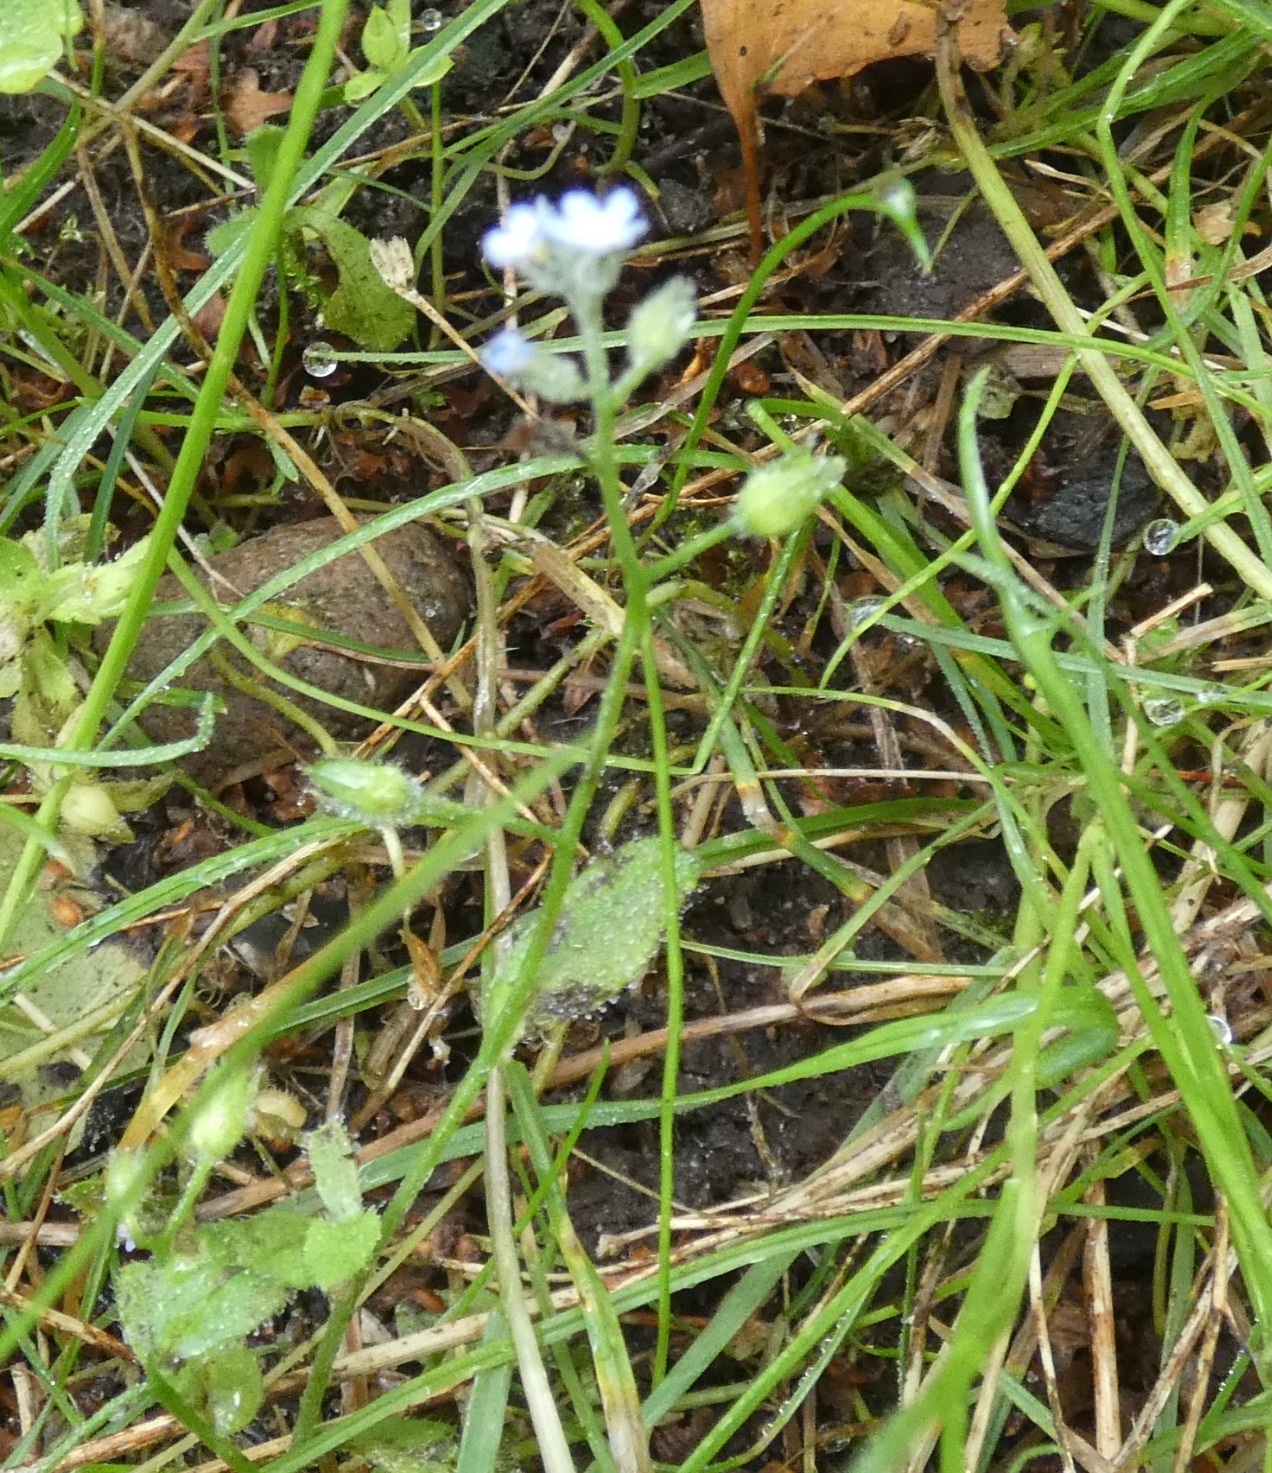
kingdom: Plantae
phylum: Tracheophyta
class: Magnoliopsida
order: Boraginales
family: Boraginaceae
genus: Myosotis
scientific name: Myosotis arvensis
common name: Mark-forglemmigej
